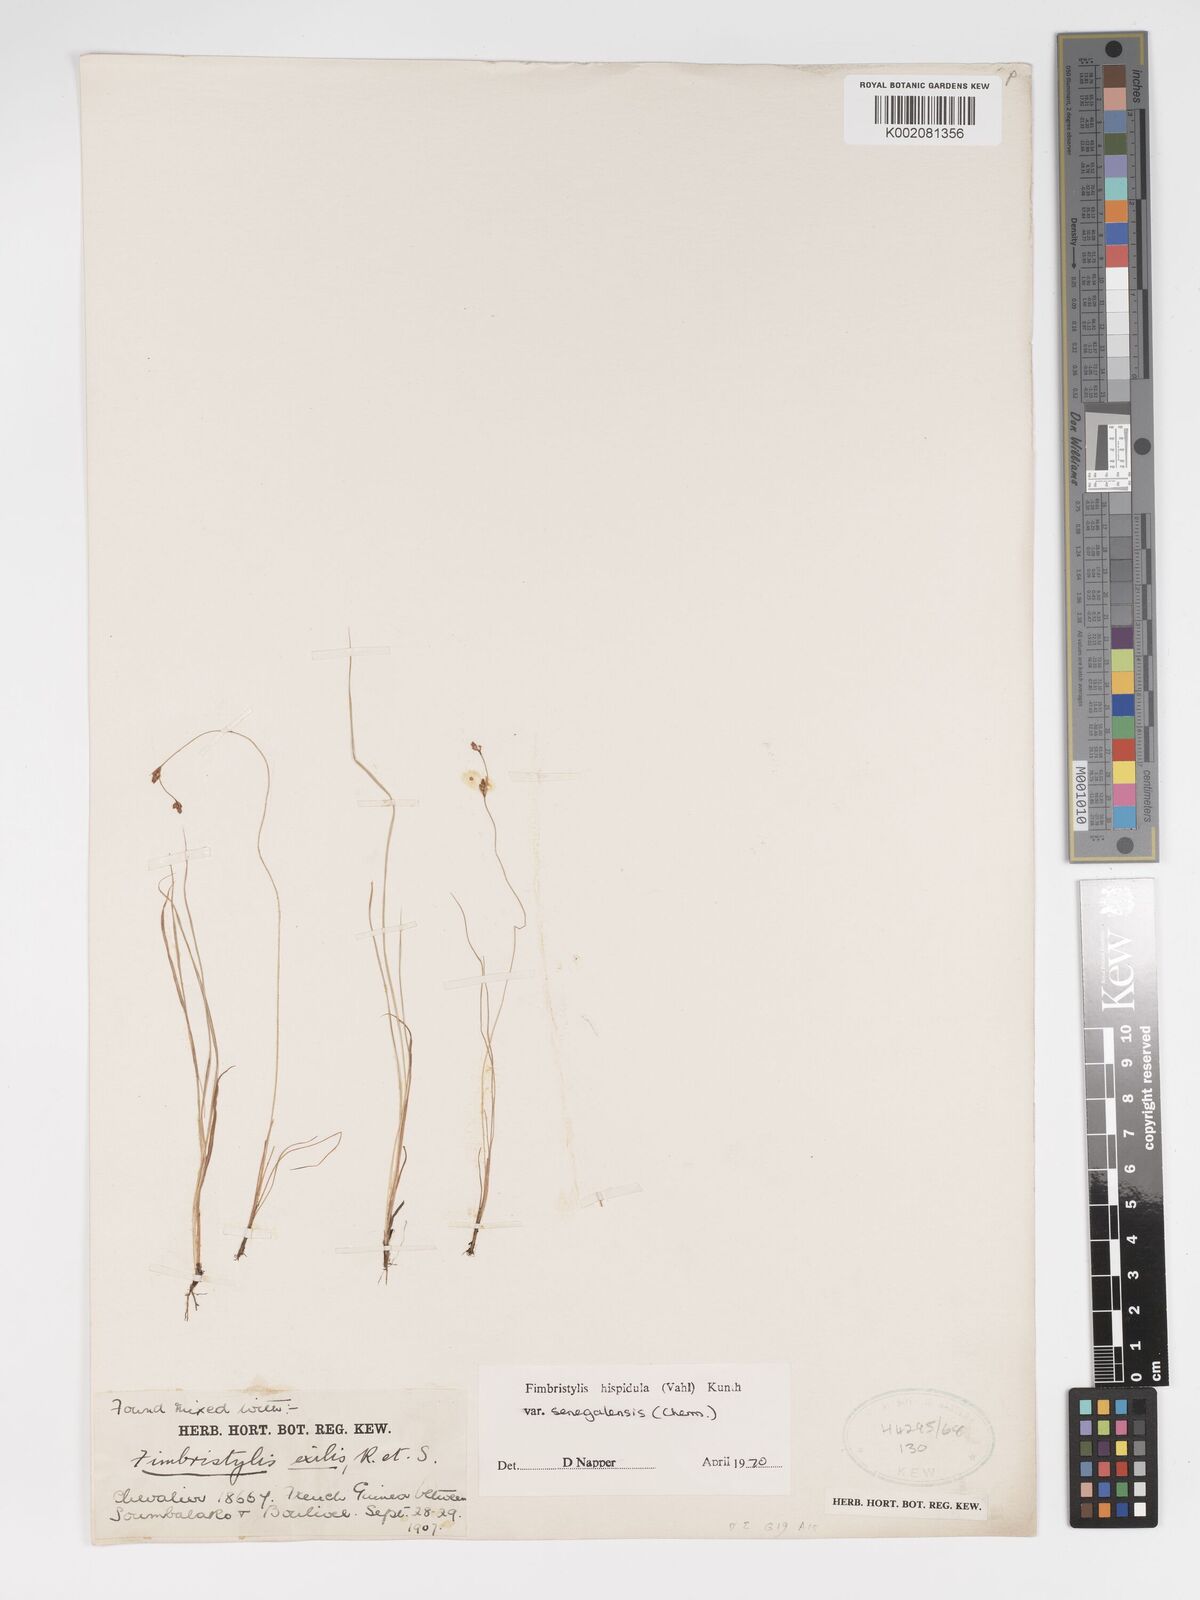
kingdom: Plantae
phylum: Tracheophyta
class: Liliopsida
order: Poales
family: Cyperaceae
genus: Bulbostylis
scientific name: Bulbostylis hispidula
